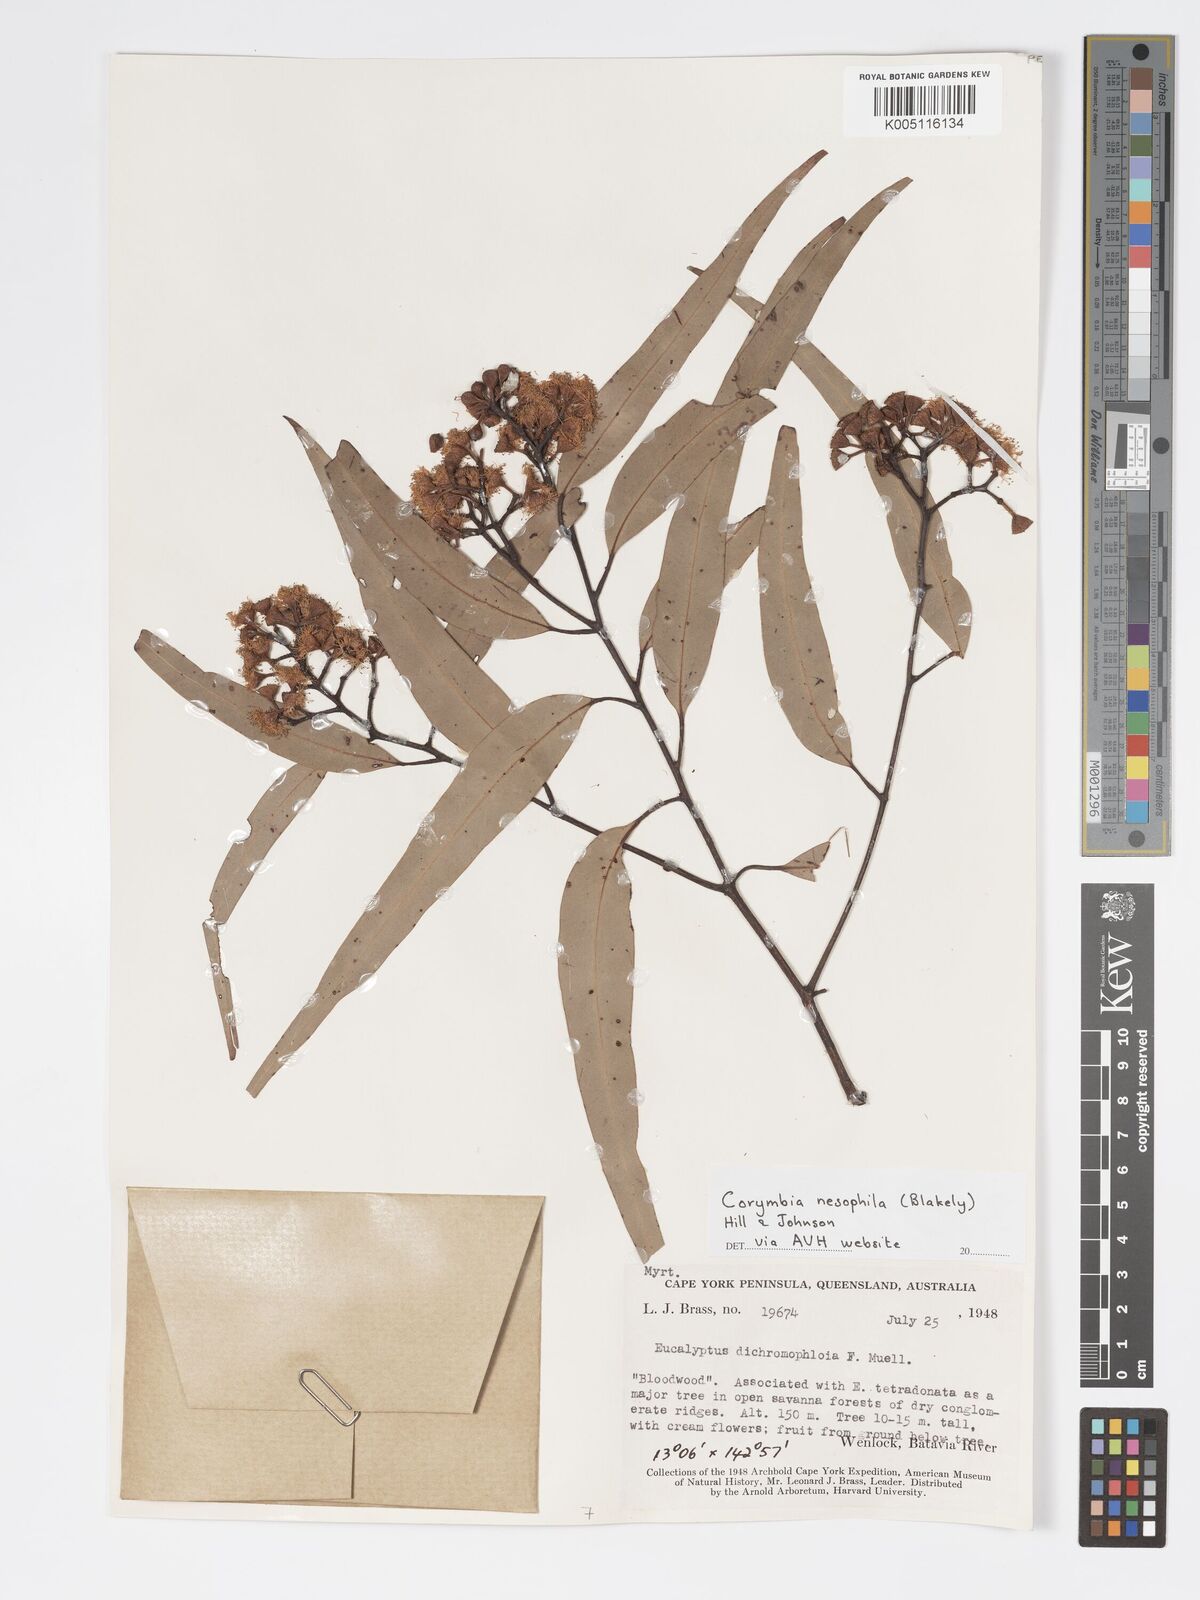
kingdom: Plantae
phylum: Tracheophyta
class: Magnoliopsida
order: Myrtales
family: Myrtaceae
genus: Corymbia
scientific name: Corymbia nesophila
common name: Melville-island-bloodwood
